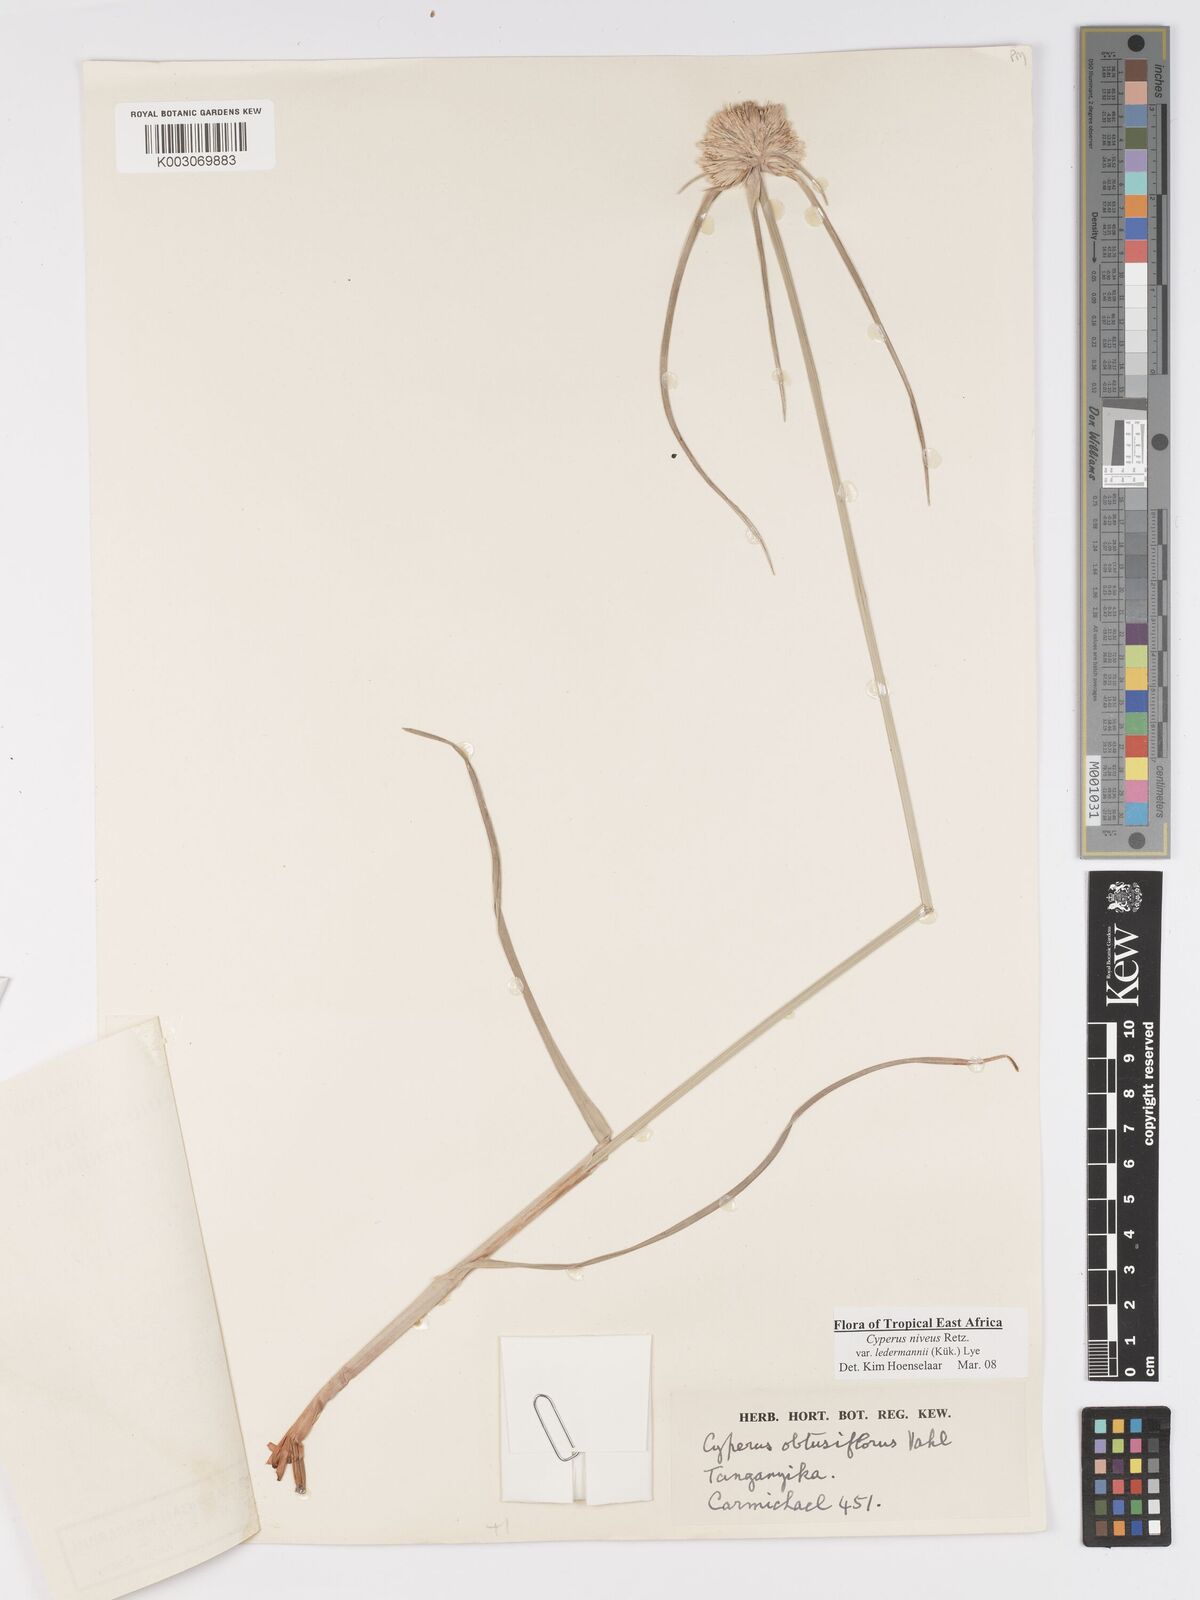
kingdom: Plantae
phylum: Tracheophyta
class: Liliopsida
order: Poales
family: Cyperaceae
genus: Cyperus
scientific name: Cyperus niveus
